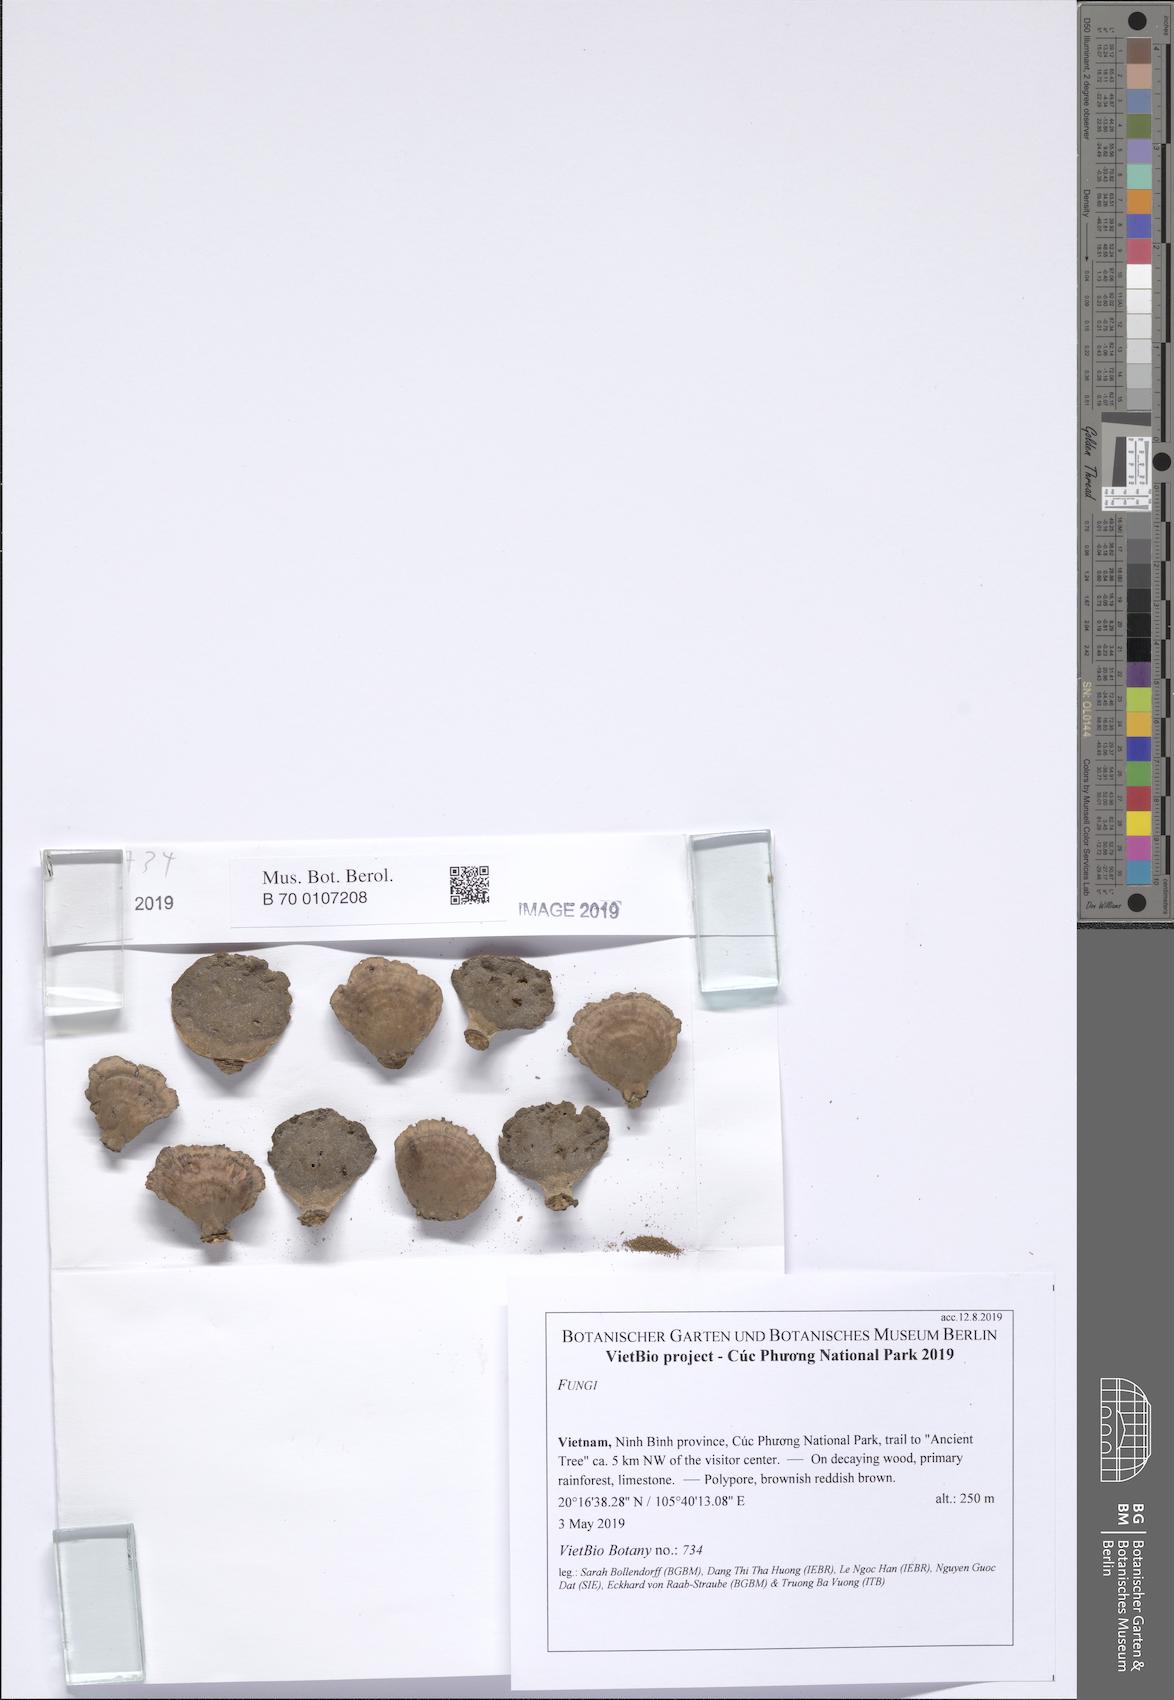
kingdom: Fungi
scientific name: Fungi
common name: Fungi
